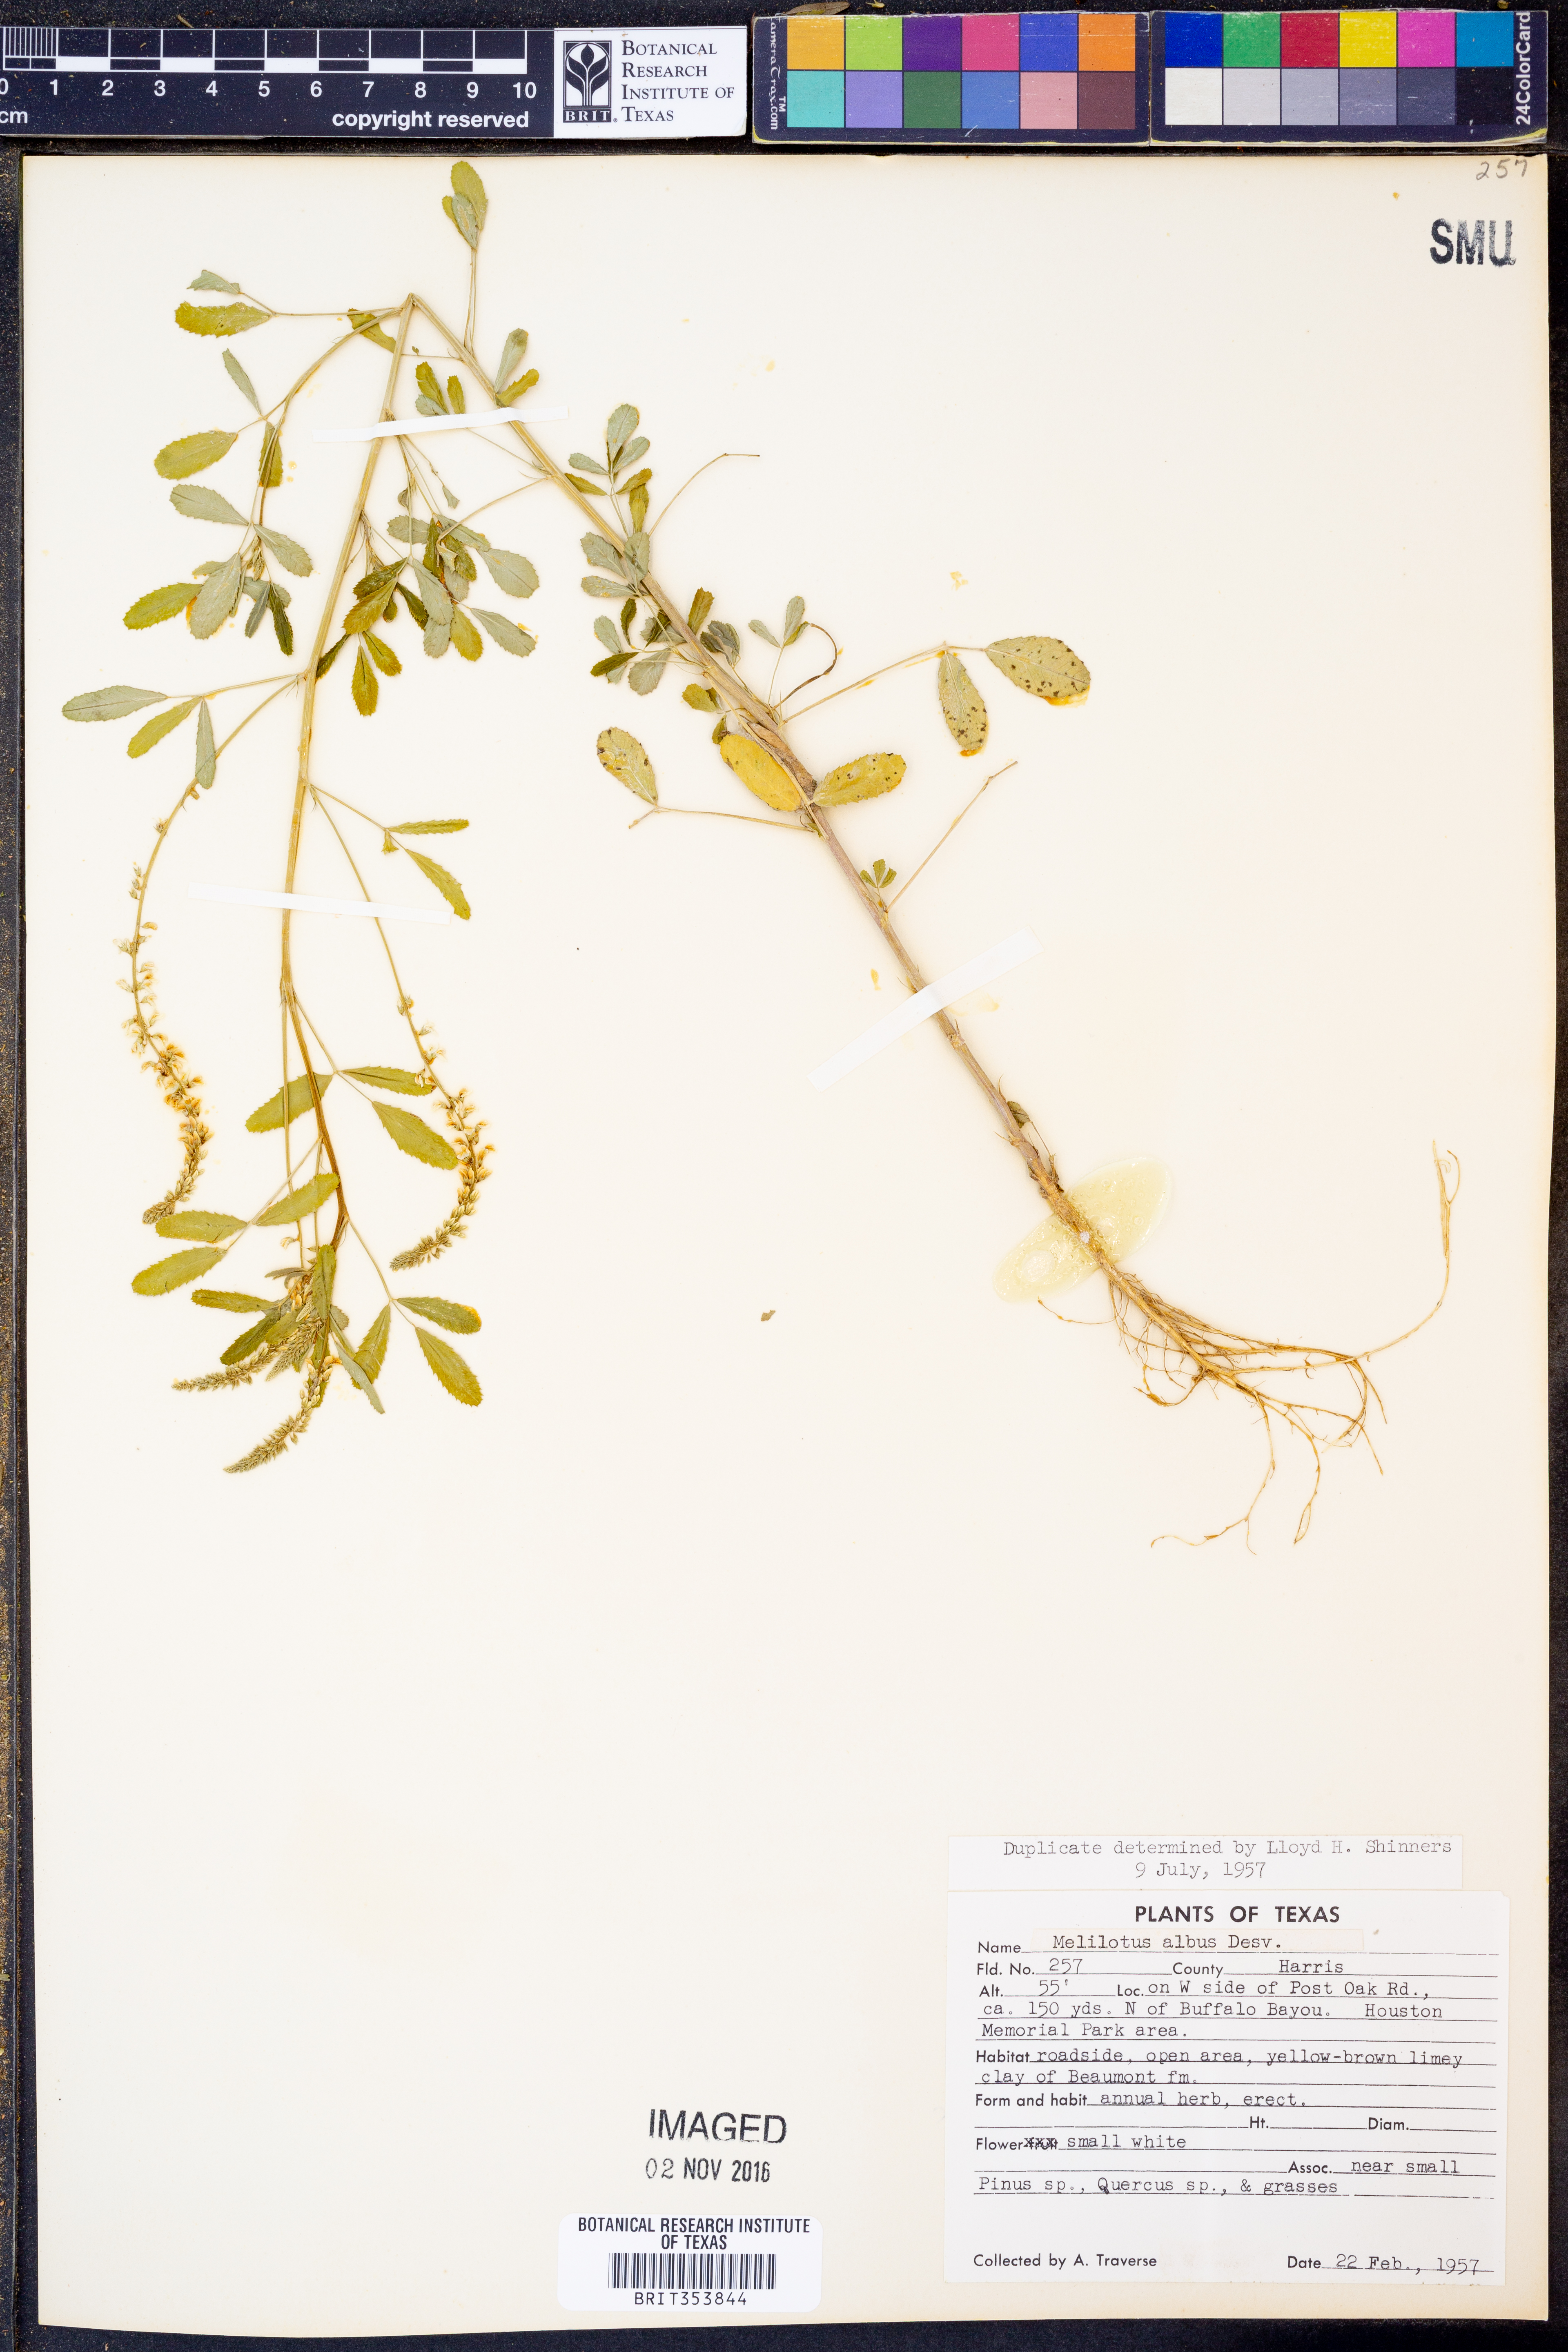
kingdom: Plantae
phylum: Tracheophyta
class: Magnoliopsida
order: Fabales
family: Fabaceae
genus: Melilotus
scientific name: Melilotus albus
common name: White melilot
